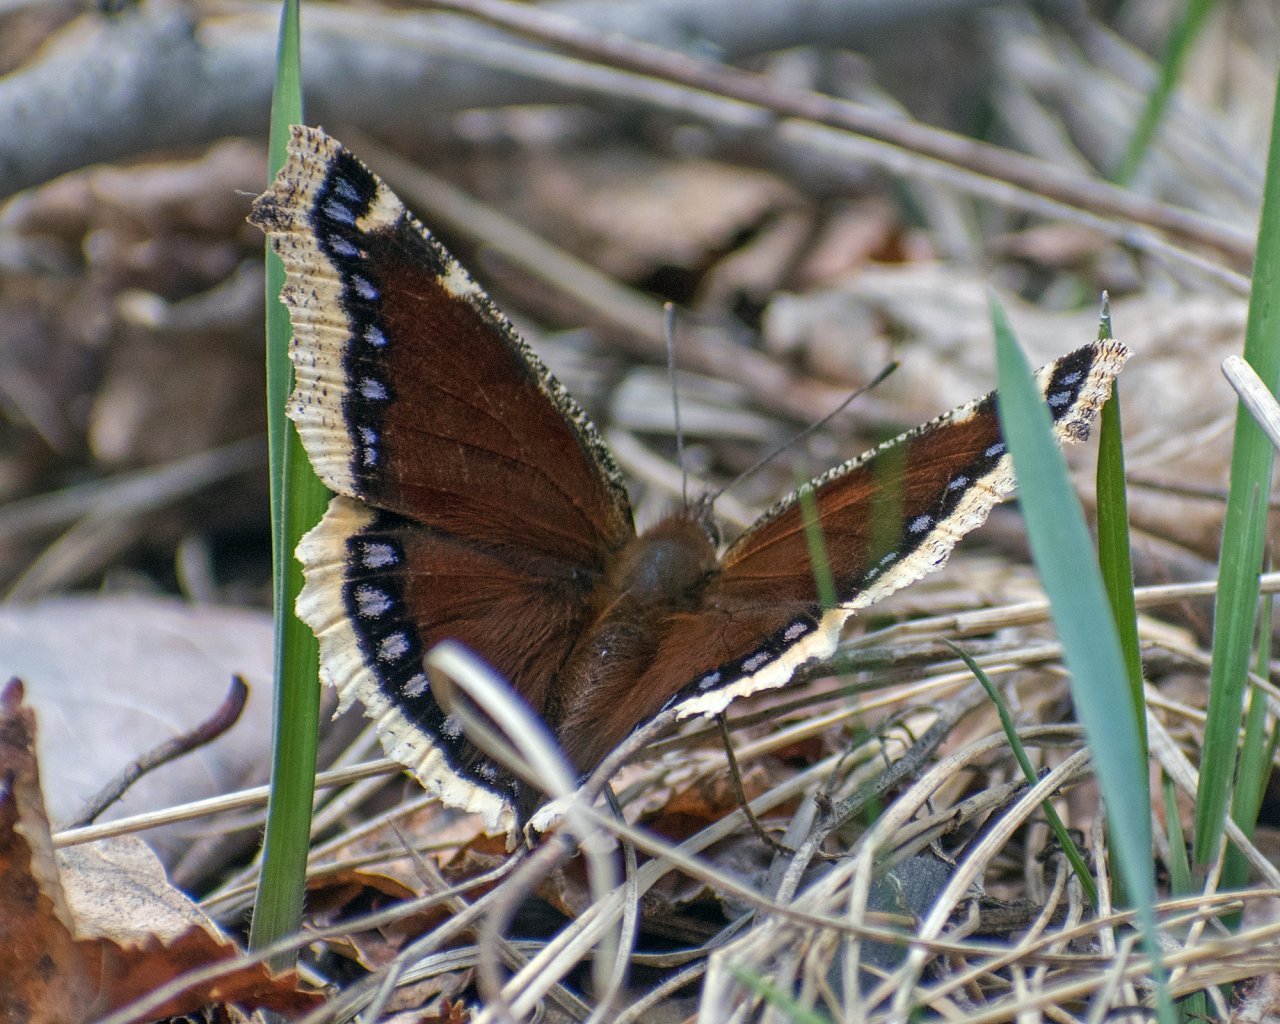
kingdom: Animalia
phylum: Arthropoda
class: Insecta
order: Lepidoptera
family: Nymphalidae
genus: Nymphalis
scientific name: Nymphalis antiopa
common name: Mourning Cloak
